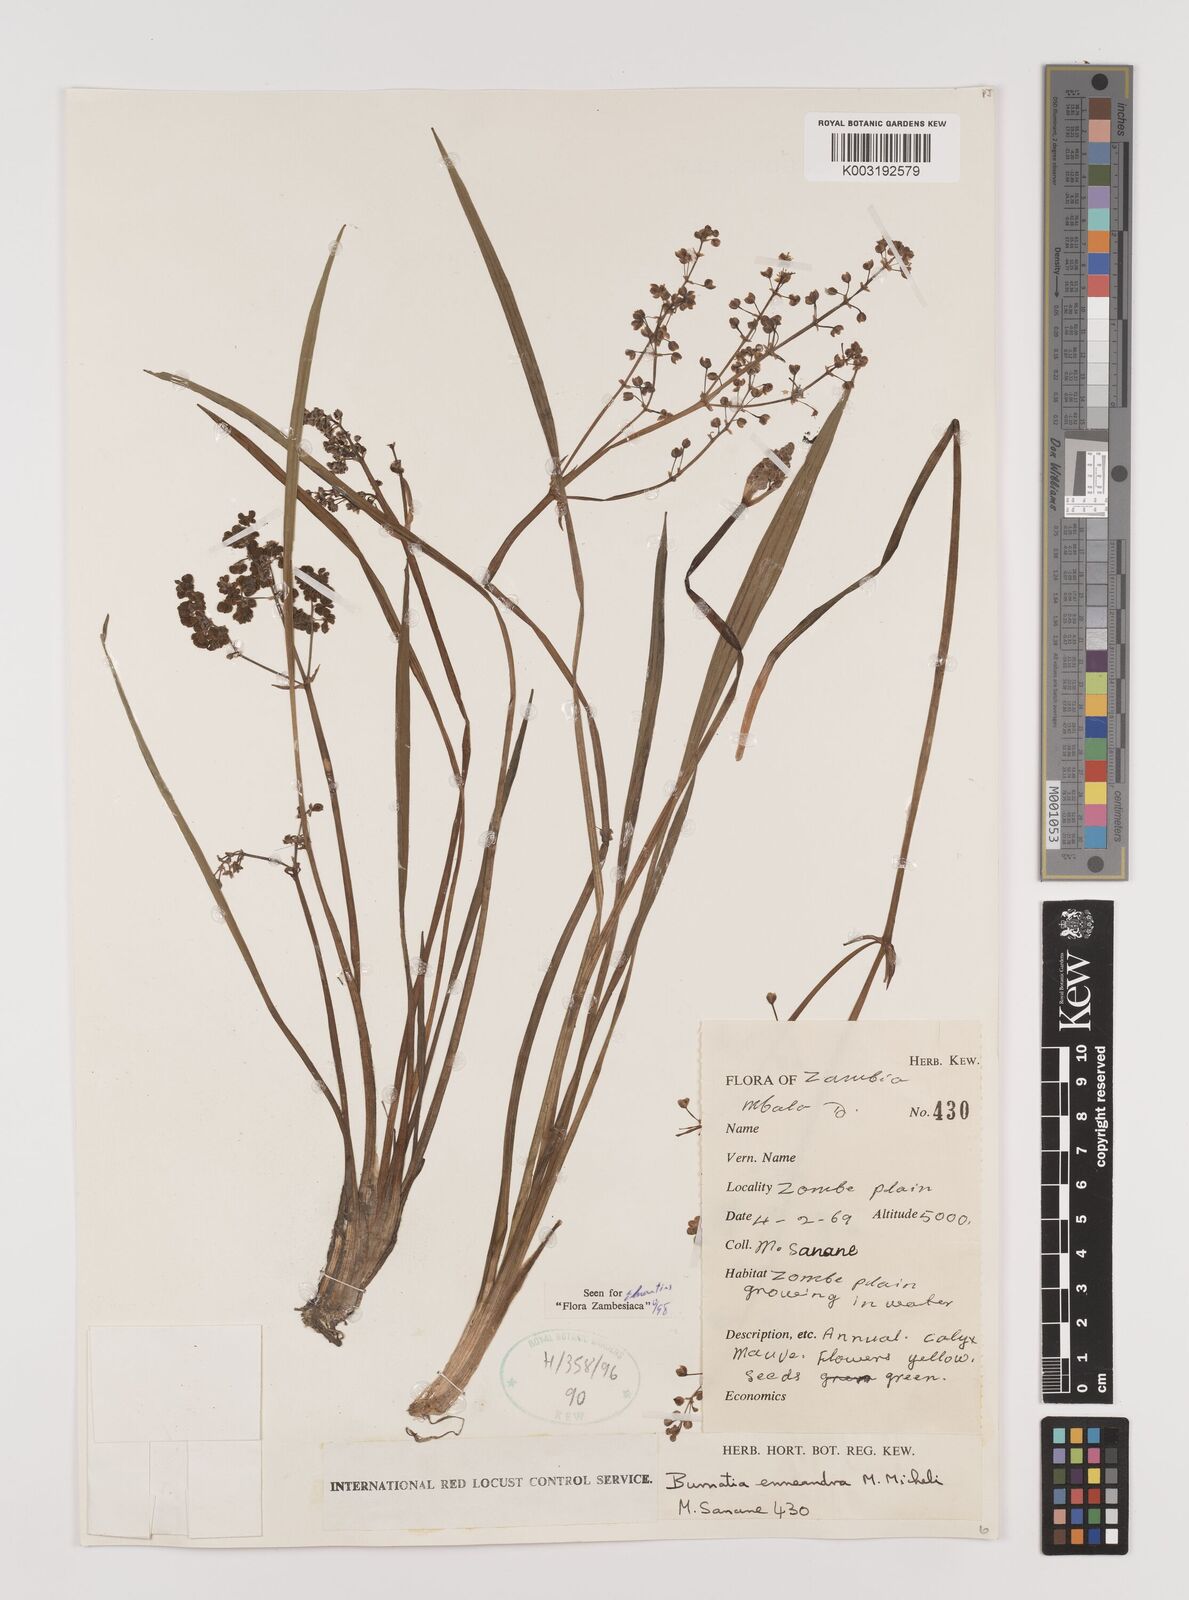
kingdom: Plantae
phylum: Tracheophyta
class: Liliopsida
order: Alismatales
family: Alismataceae
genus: Burnatia
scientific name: Burnatia enneandra
